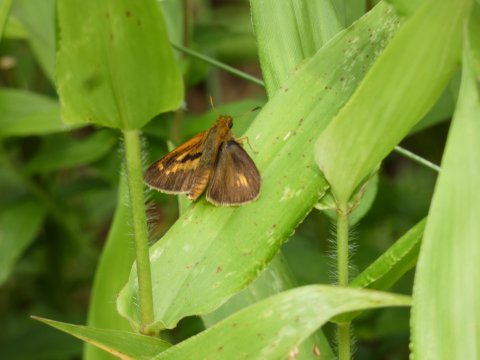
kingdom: Animalia
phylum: Arthropoda
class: Insecta
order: Lepidoptera
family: Hesperiidae
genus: Euphyes
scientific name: Euphyes conspicua
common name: Black Dash
